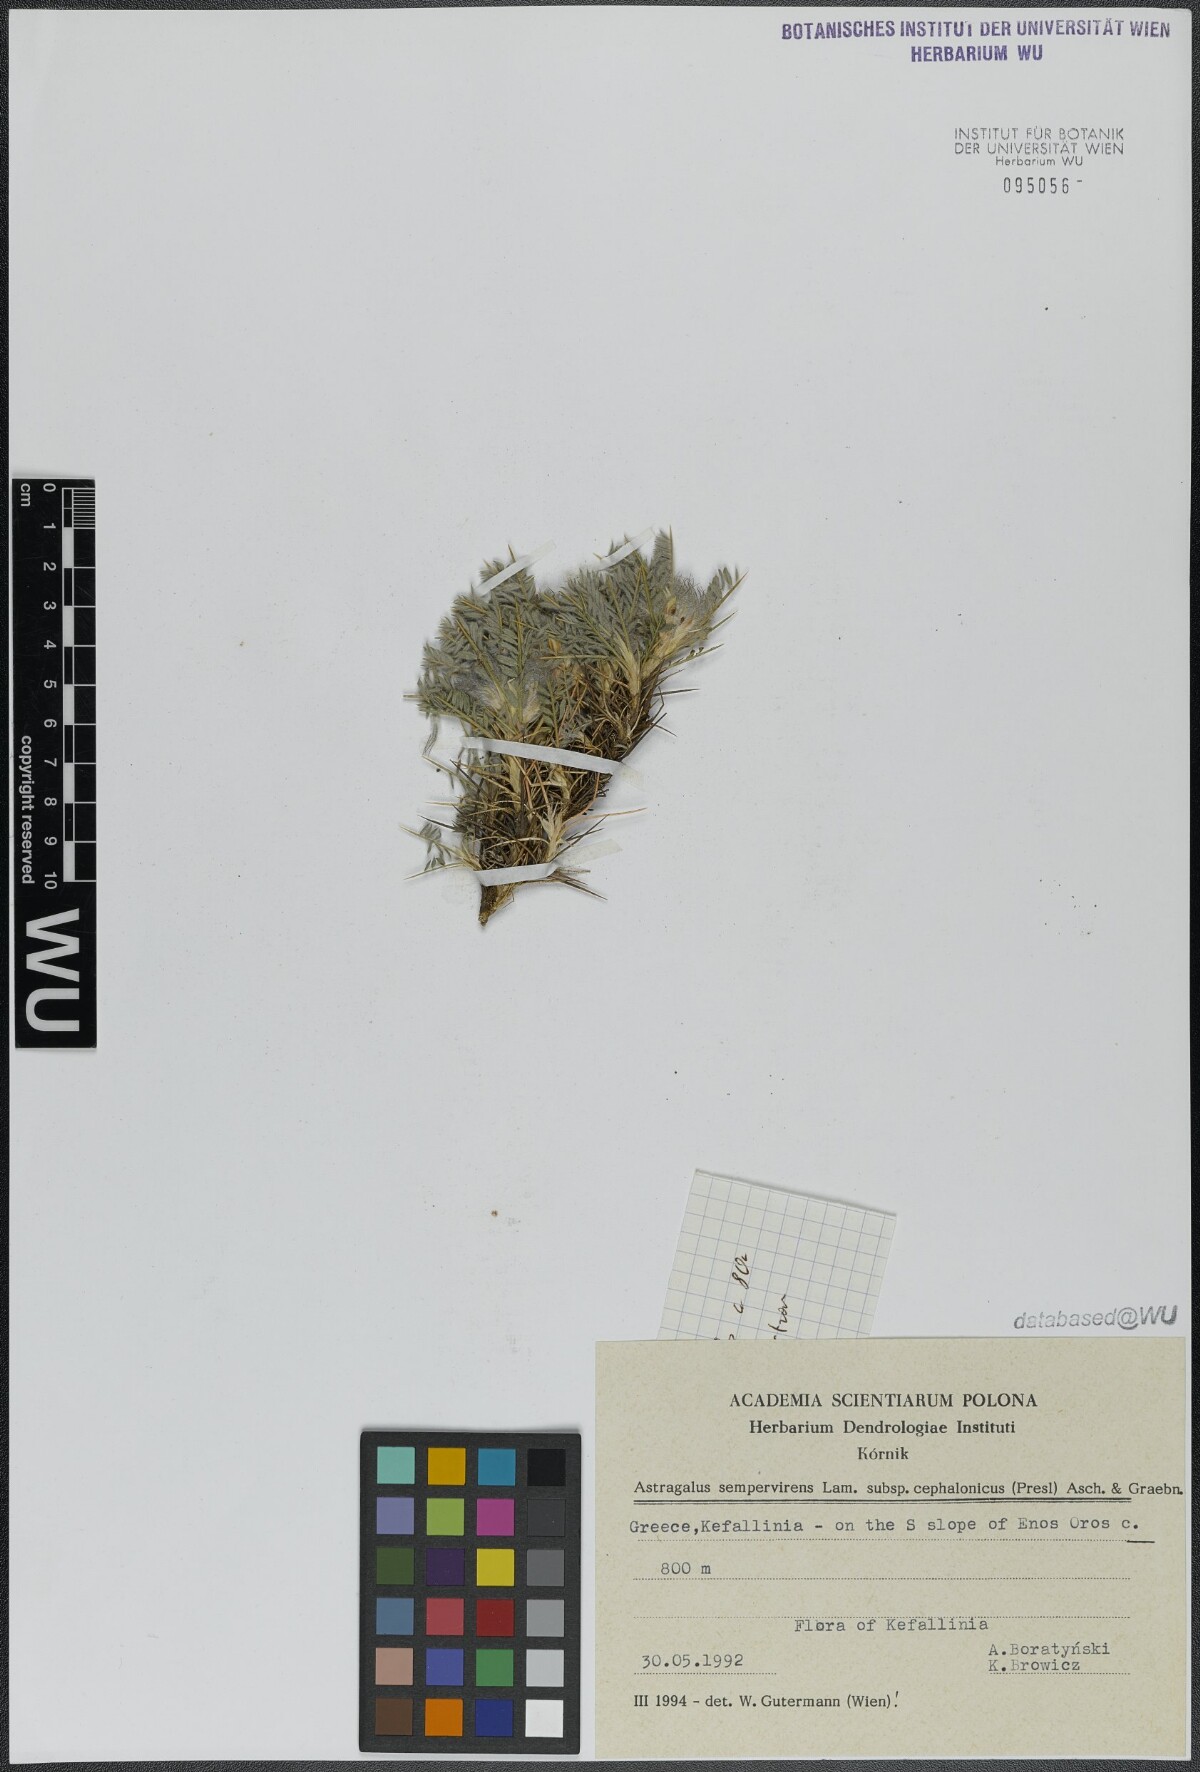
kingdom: Plantae
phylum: Tracheophyta
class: Magnoliopsida
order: Fabales
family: Fabaceae
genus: Astragalus
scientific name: Astragalus sempervirens
